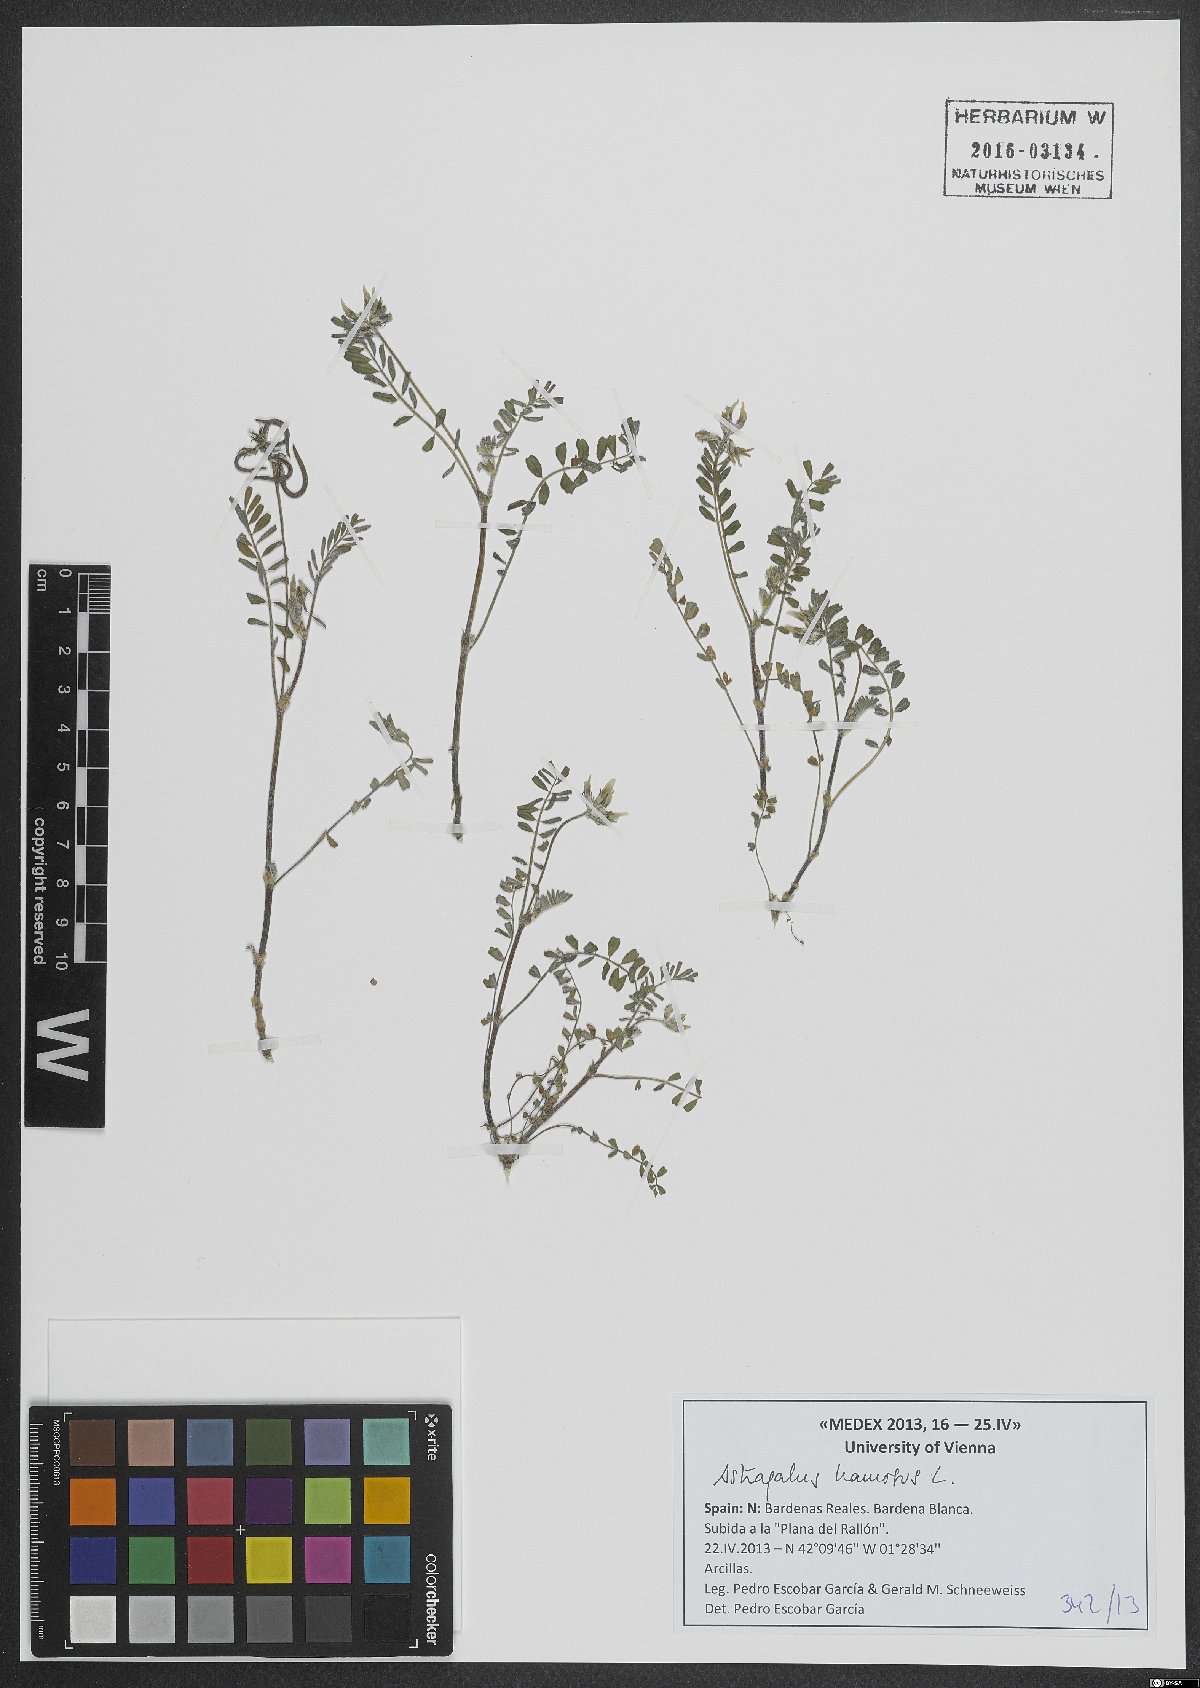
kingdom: Plantae
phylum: Tracheophyta
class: Magnoliopsida
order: Fabales
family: Fabaceae
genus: Astragalus
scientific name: Astragalus hamosus
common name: European milkvetch
